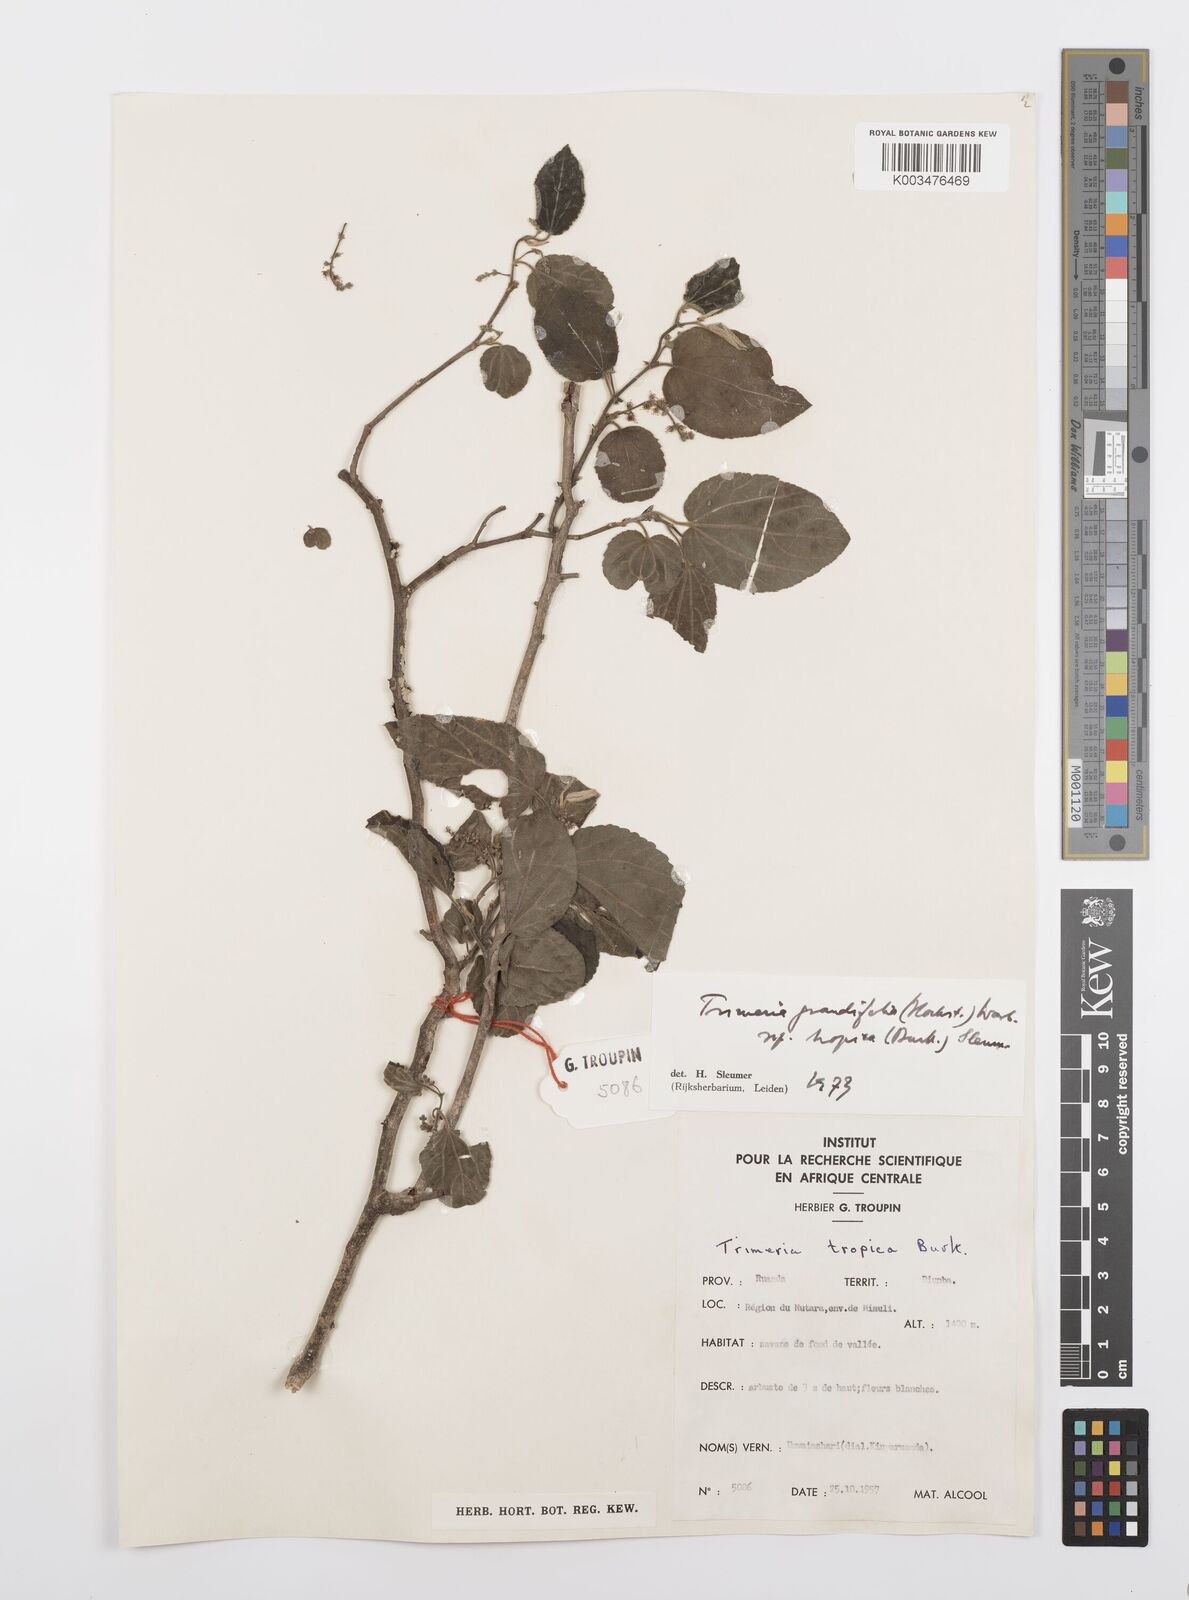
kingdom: Plantae
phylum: Tracheophyta
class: Magnoliopsida
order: Malpighiales
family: Salicaceae
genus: Trimeria
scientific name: Trimeria grandifolia
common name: Wild mulberry
